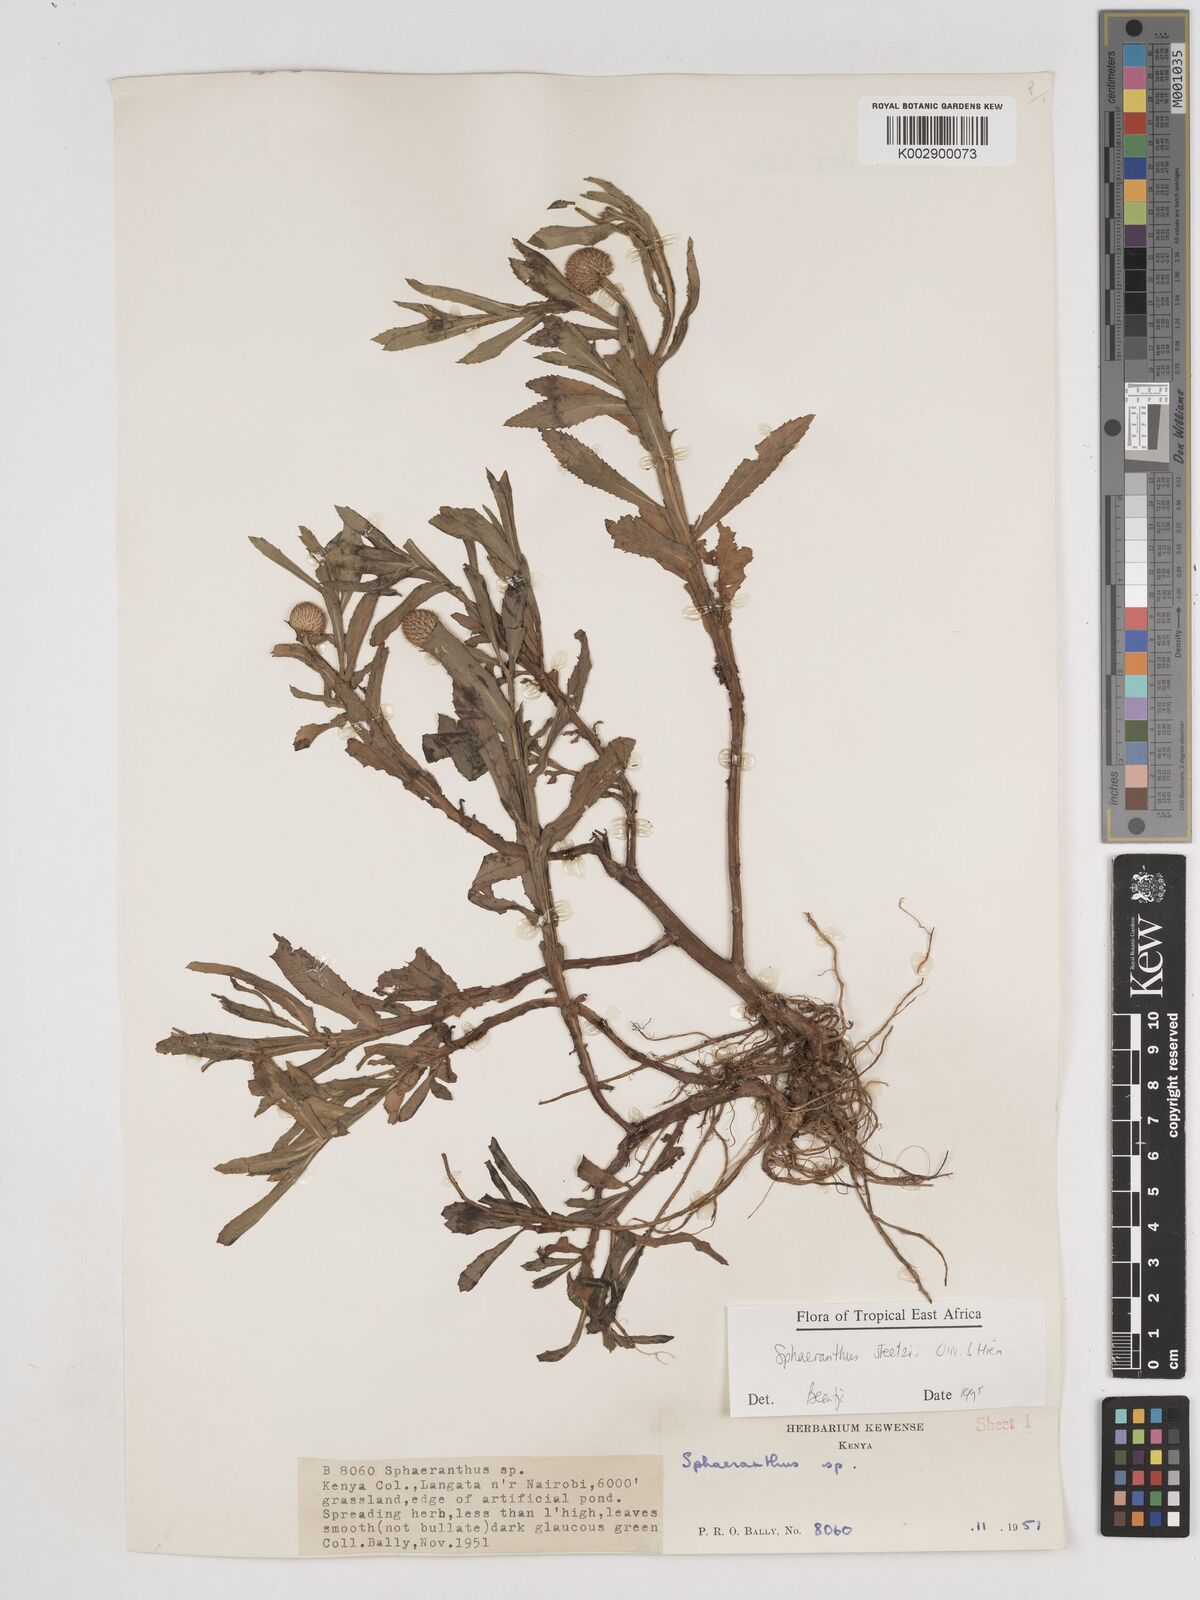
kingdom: Plantae
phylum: Tracheophyta
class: Magnoliopsida
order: Asterales
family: Asteraceae
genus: Sphaeranthus
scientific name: Sphaeranthus steetzii
